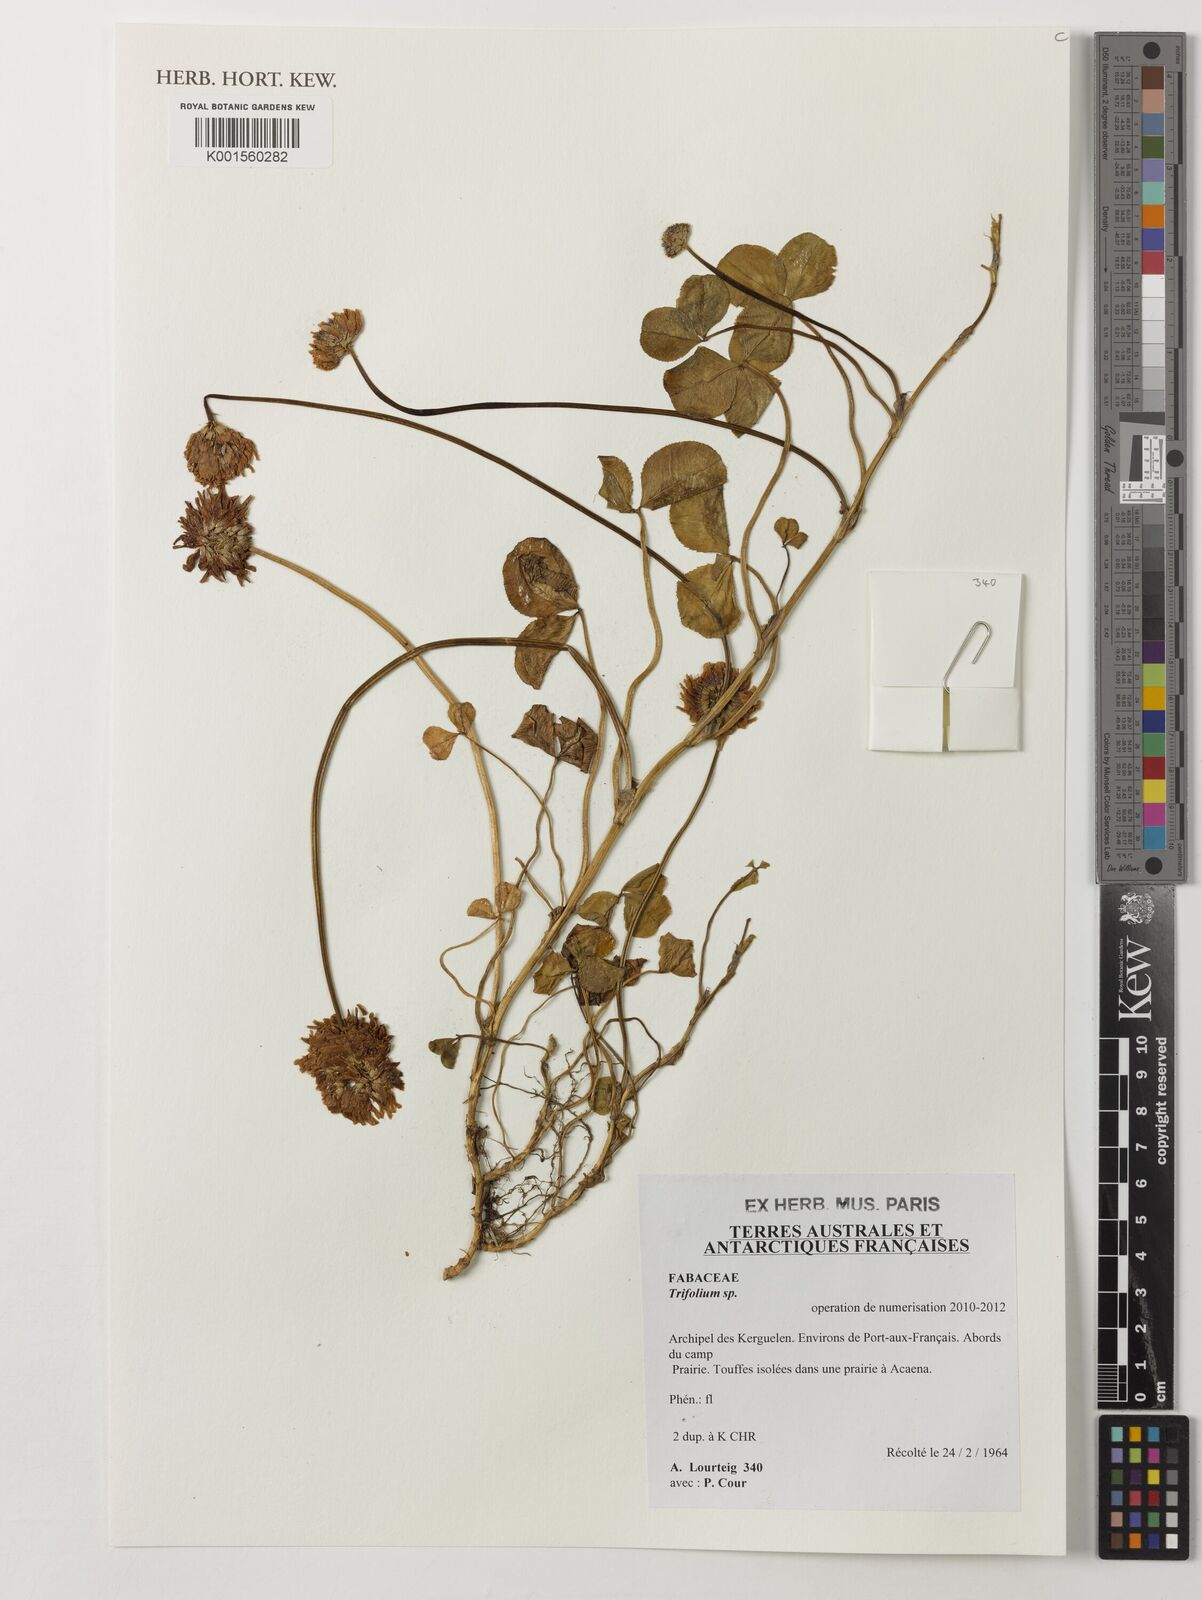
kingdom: Plantae
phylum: Tracheophyta
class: Magnoliopsida
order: Fabales
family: Fabaceae
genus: Trifolium
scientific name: Trifolium
